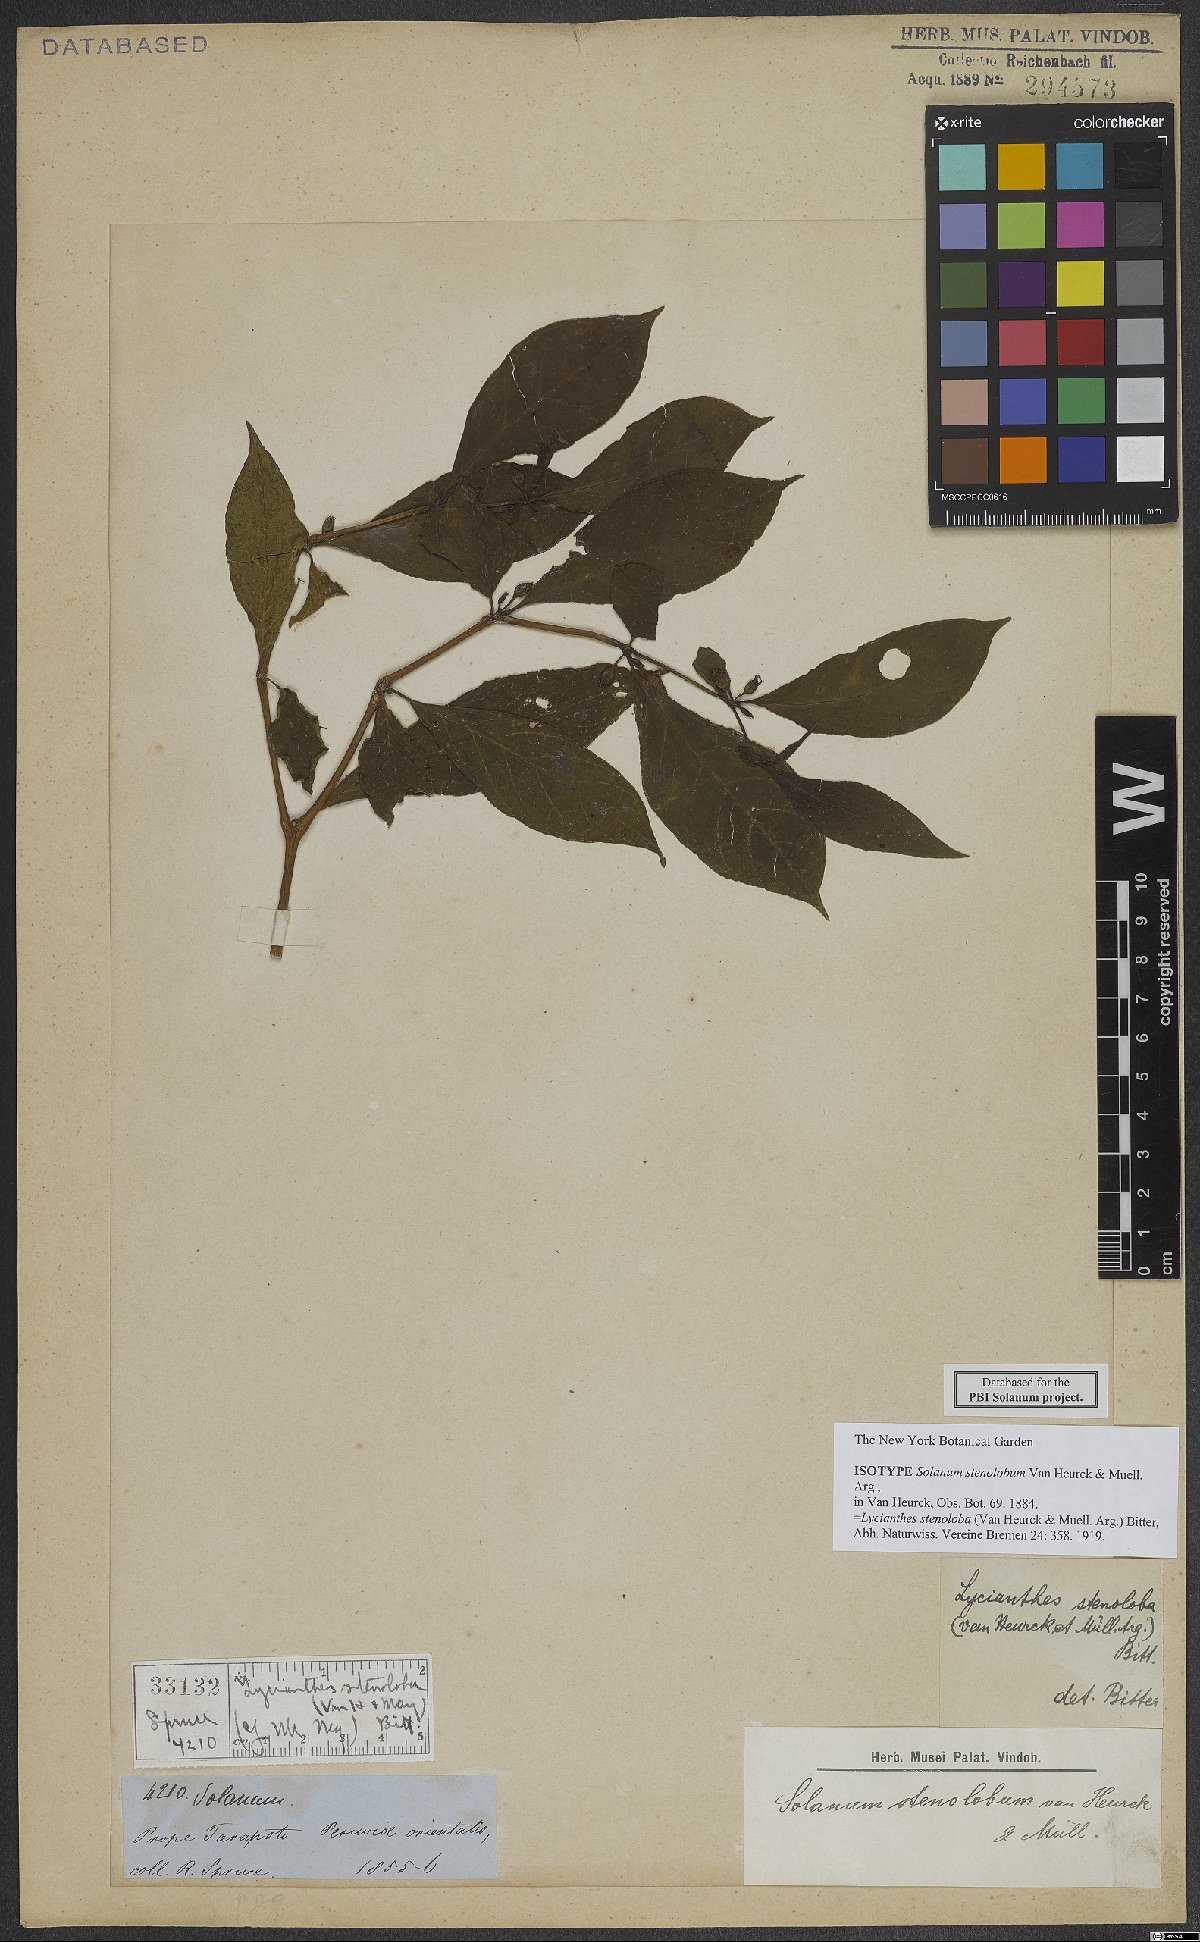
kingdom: Plantae
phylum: Tracheophyta
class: Magnoliopsida
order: Solanales
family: Solanaceae
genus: Lycianthes
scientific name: Lycianthes stenoloba
